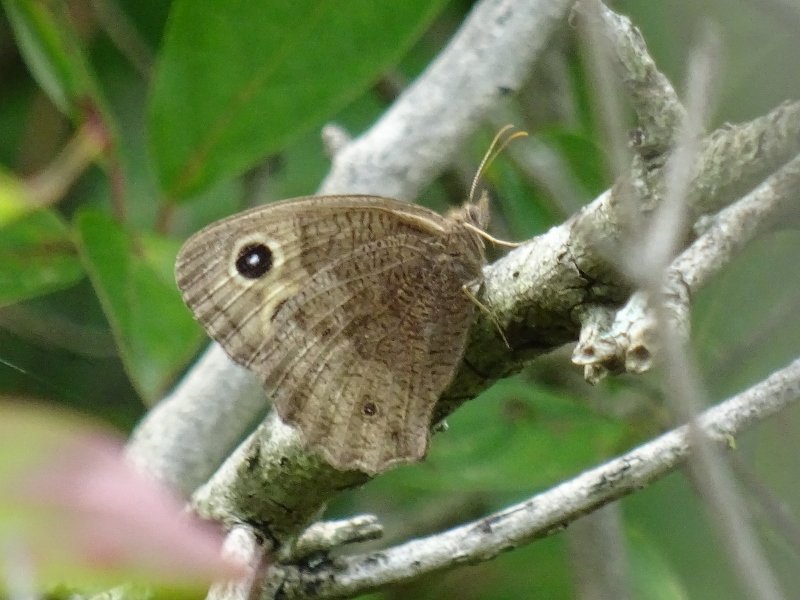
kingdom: Animalia
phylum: Arthropoda
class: Insecta
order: Lepidoptera
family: Nymphalidae
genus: Cercyonis
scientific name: Cercyonis pegala
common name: Common Wood-Nymph
